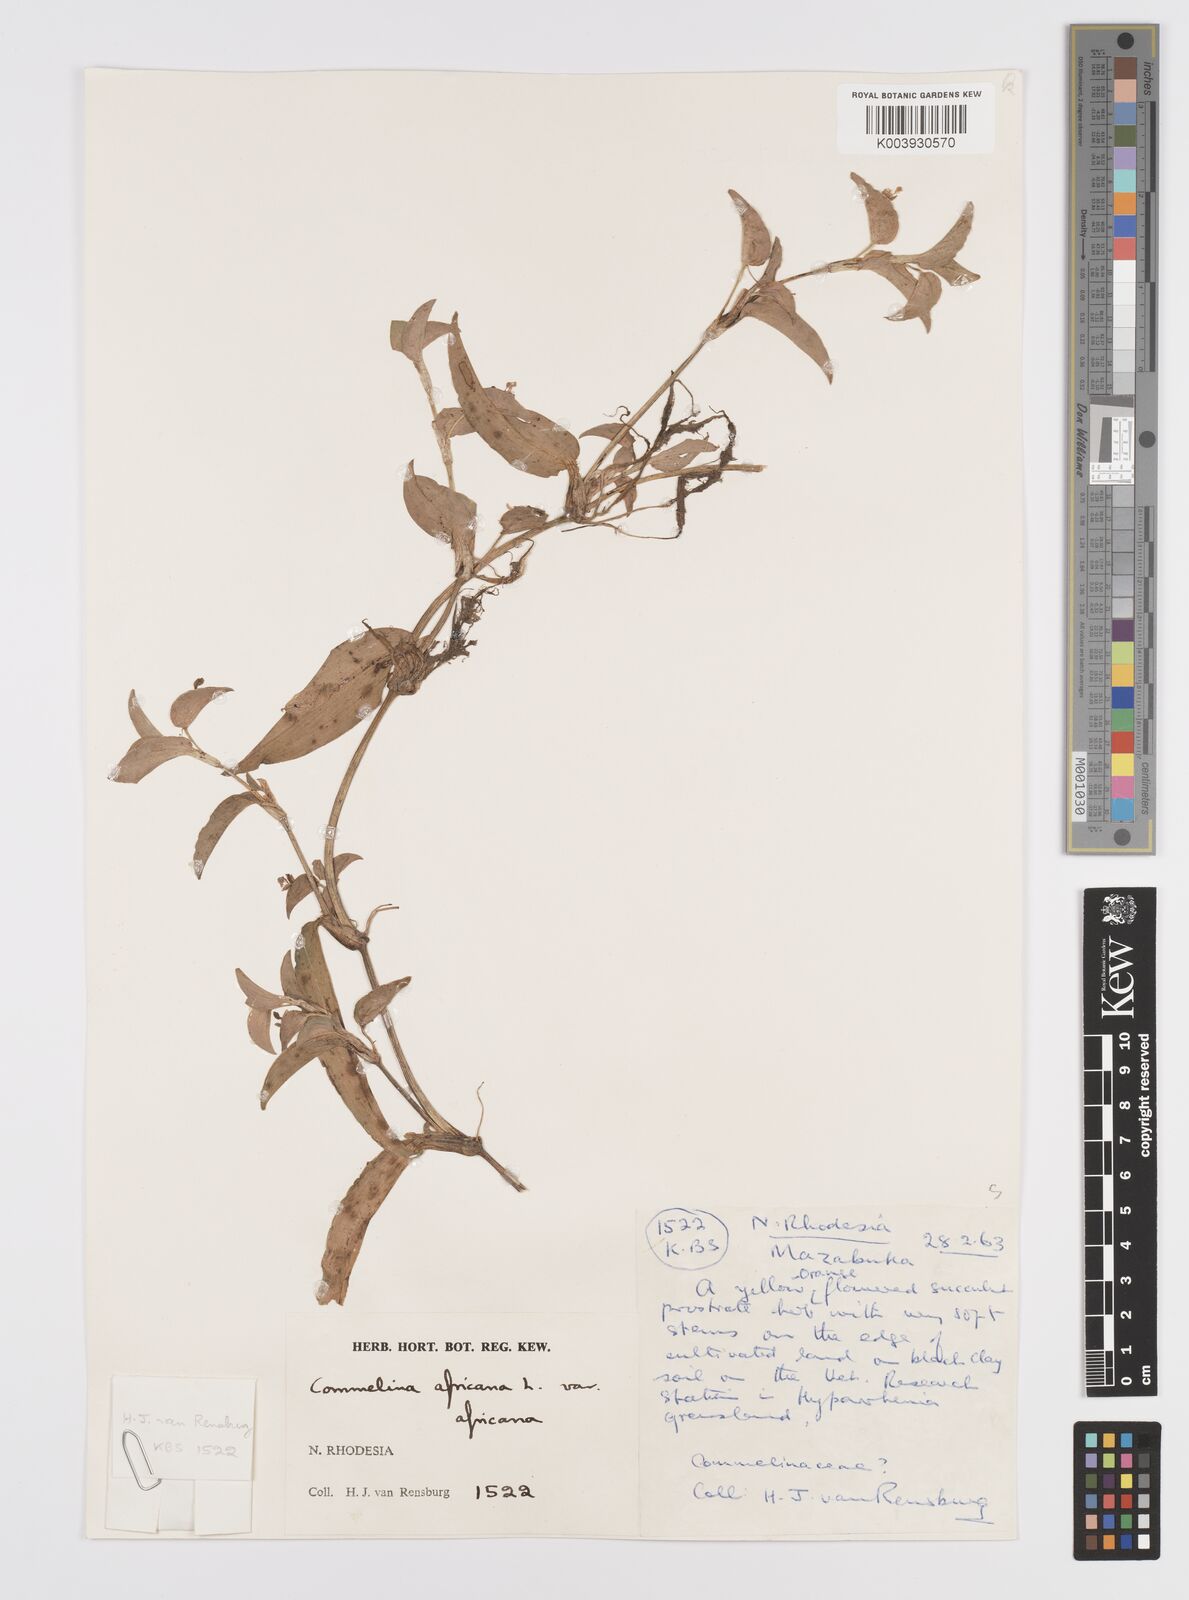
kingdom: Plantae
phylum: Tracheophyta
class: Liliopsida
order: Commelinales
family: Commelinaceae
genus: Commelina
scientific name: Commelina africana
